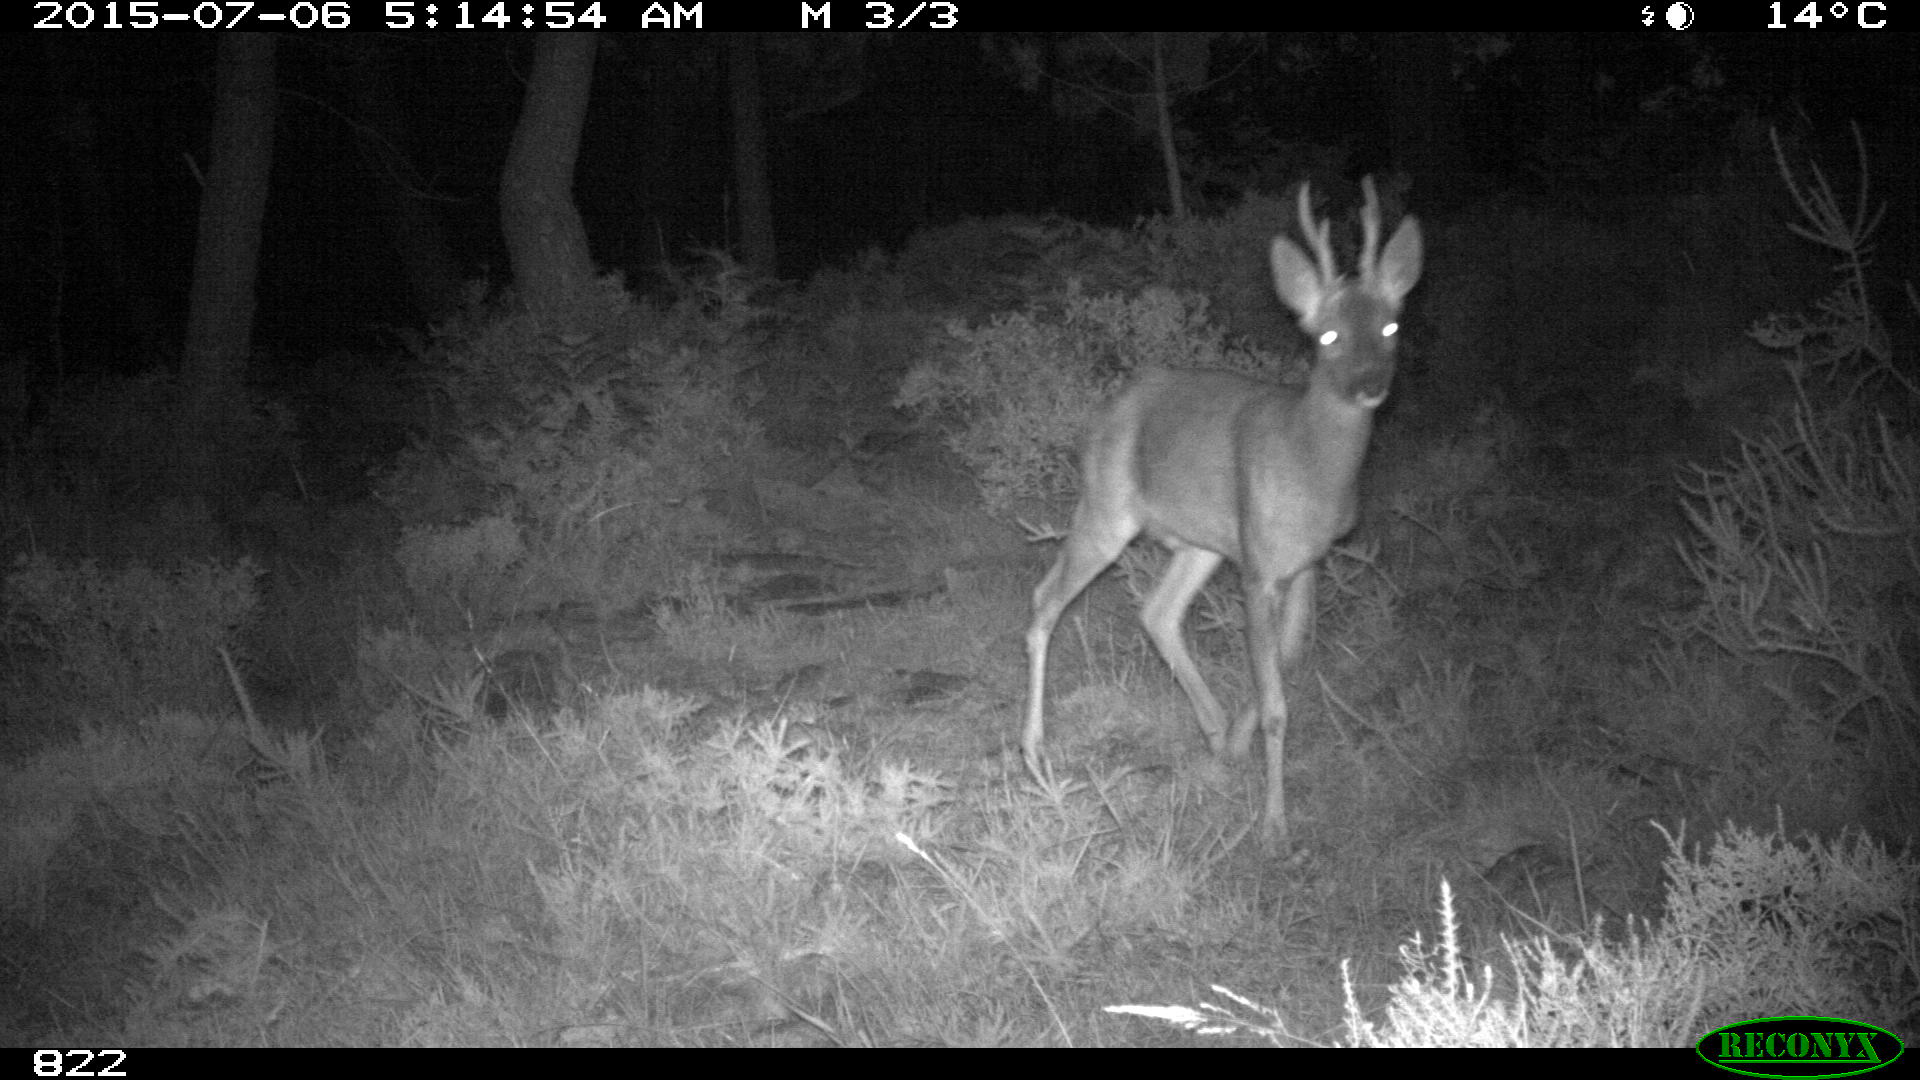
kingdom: Animalia
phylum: Chordata
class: Mammalia
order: Artiodactyla
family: Cervidae
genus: Capreolus
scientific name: Capreolus capreolus
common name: Western roe deer
